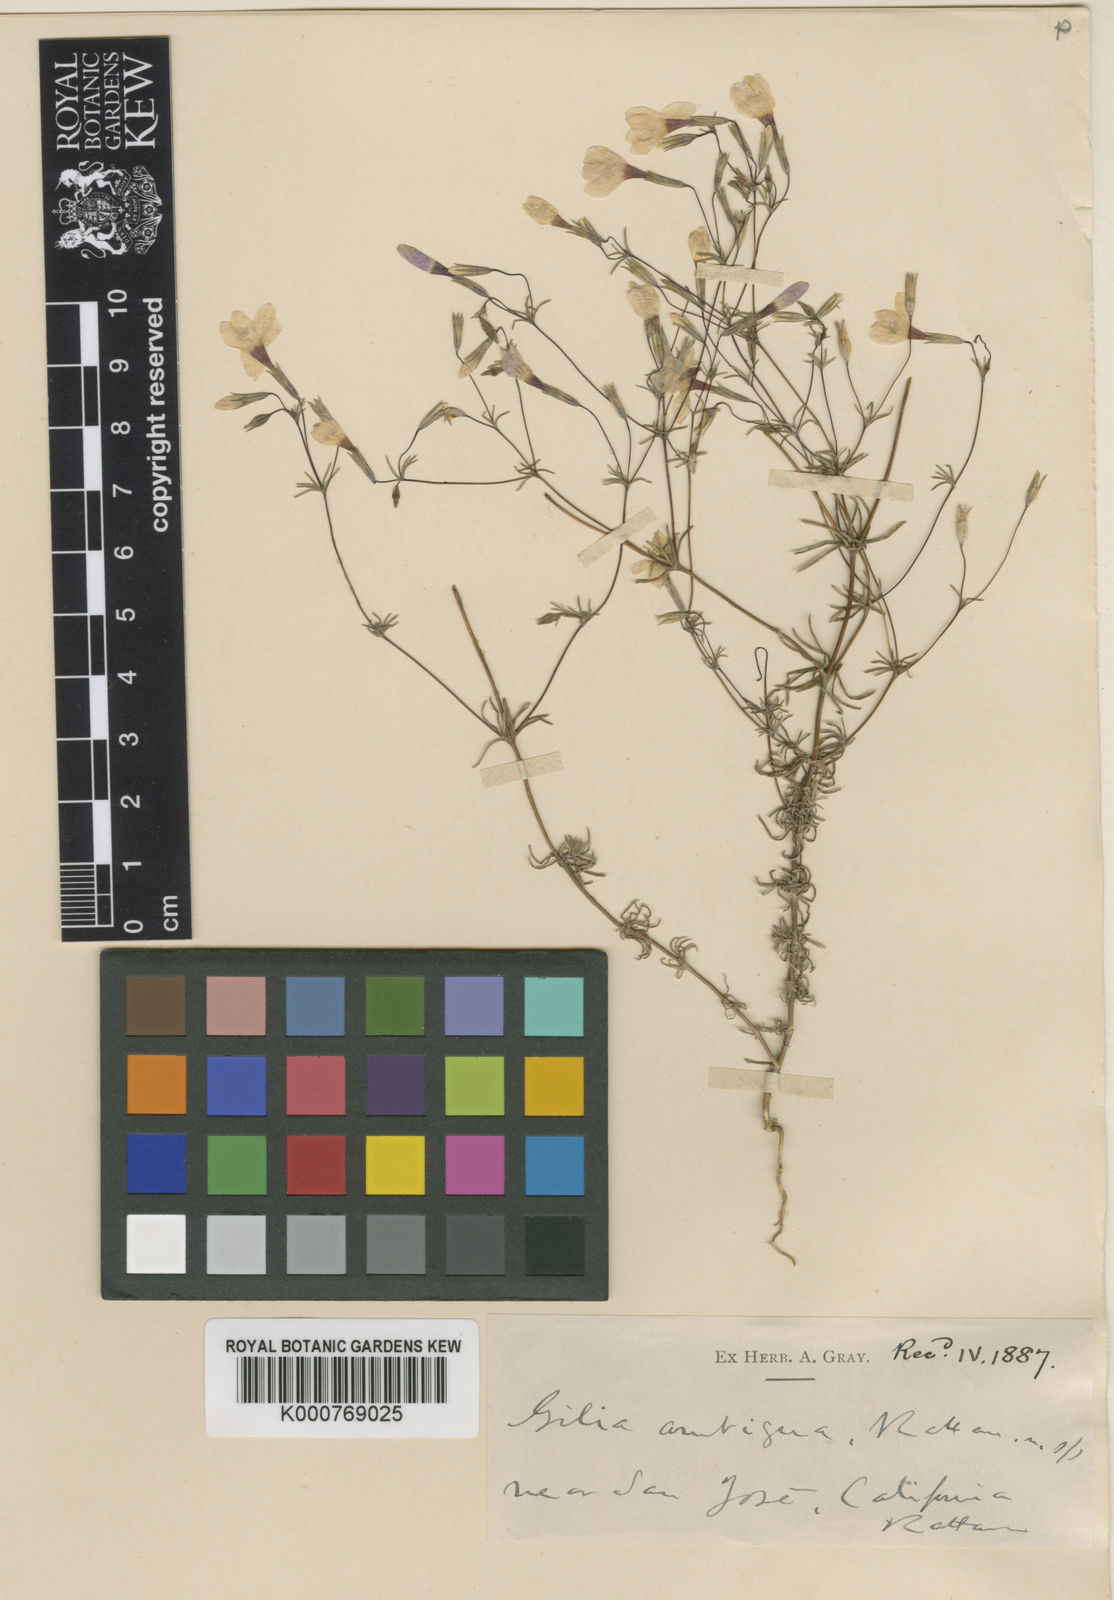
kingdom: Plantae
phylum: Tracheophyta
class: Magnoliopsida
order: Ericales
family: Polemoniaceae
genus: Leptosiphon
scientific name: Leptosiphon bolanderi
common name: Bolander's linanthus
